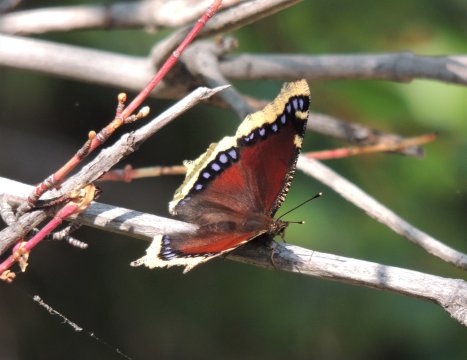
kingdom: Animalia
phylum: Arthropoda
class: Insecta
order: Lepidoptera
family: Nymphalidae
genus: Nymphalis
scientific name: Nymphalis antiopa
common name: Mourning Cloak
